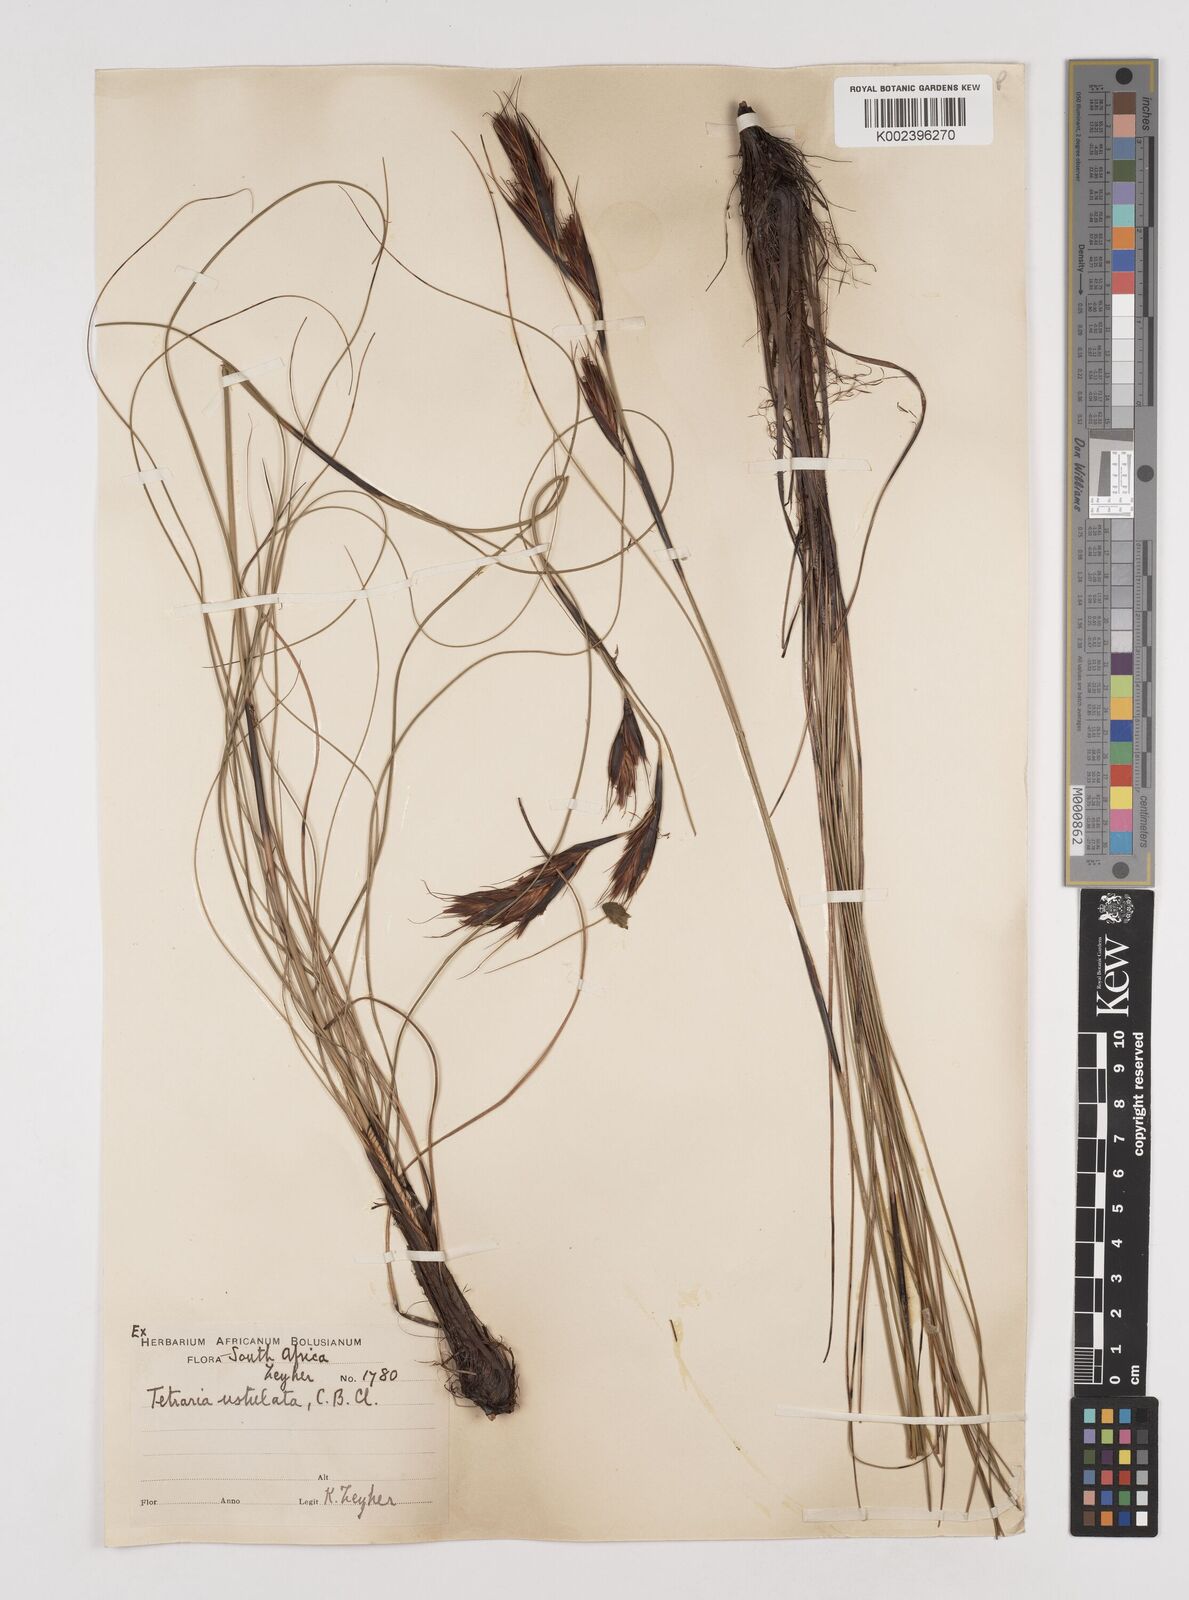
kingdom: Plantae
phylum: Tracheophyta
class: Liliopsida
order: Poales
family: Cyperaceae
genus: Tetraria
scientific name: Tetraria ustulata
